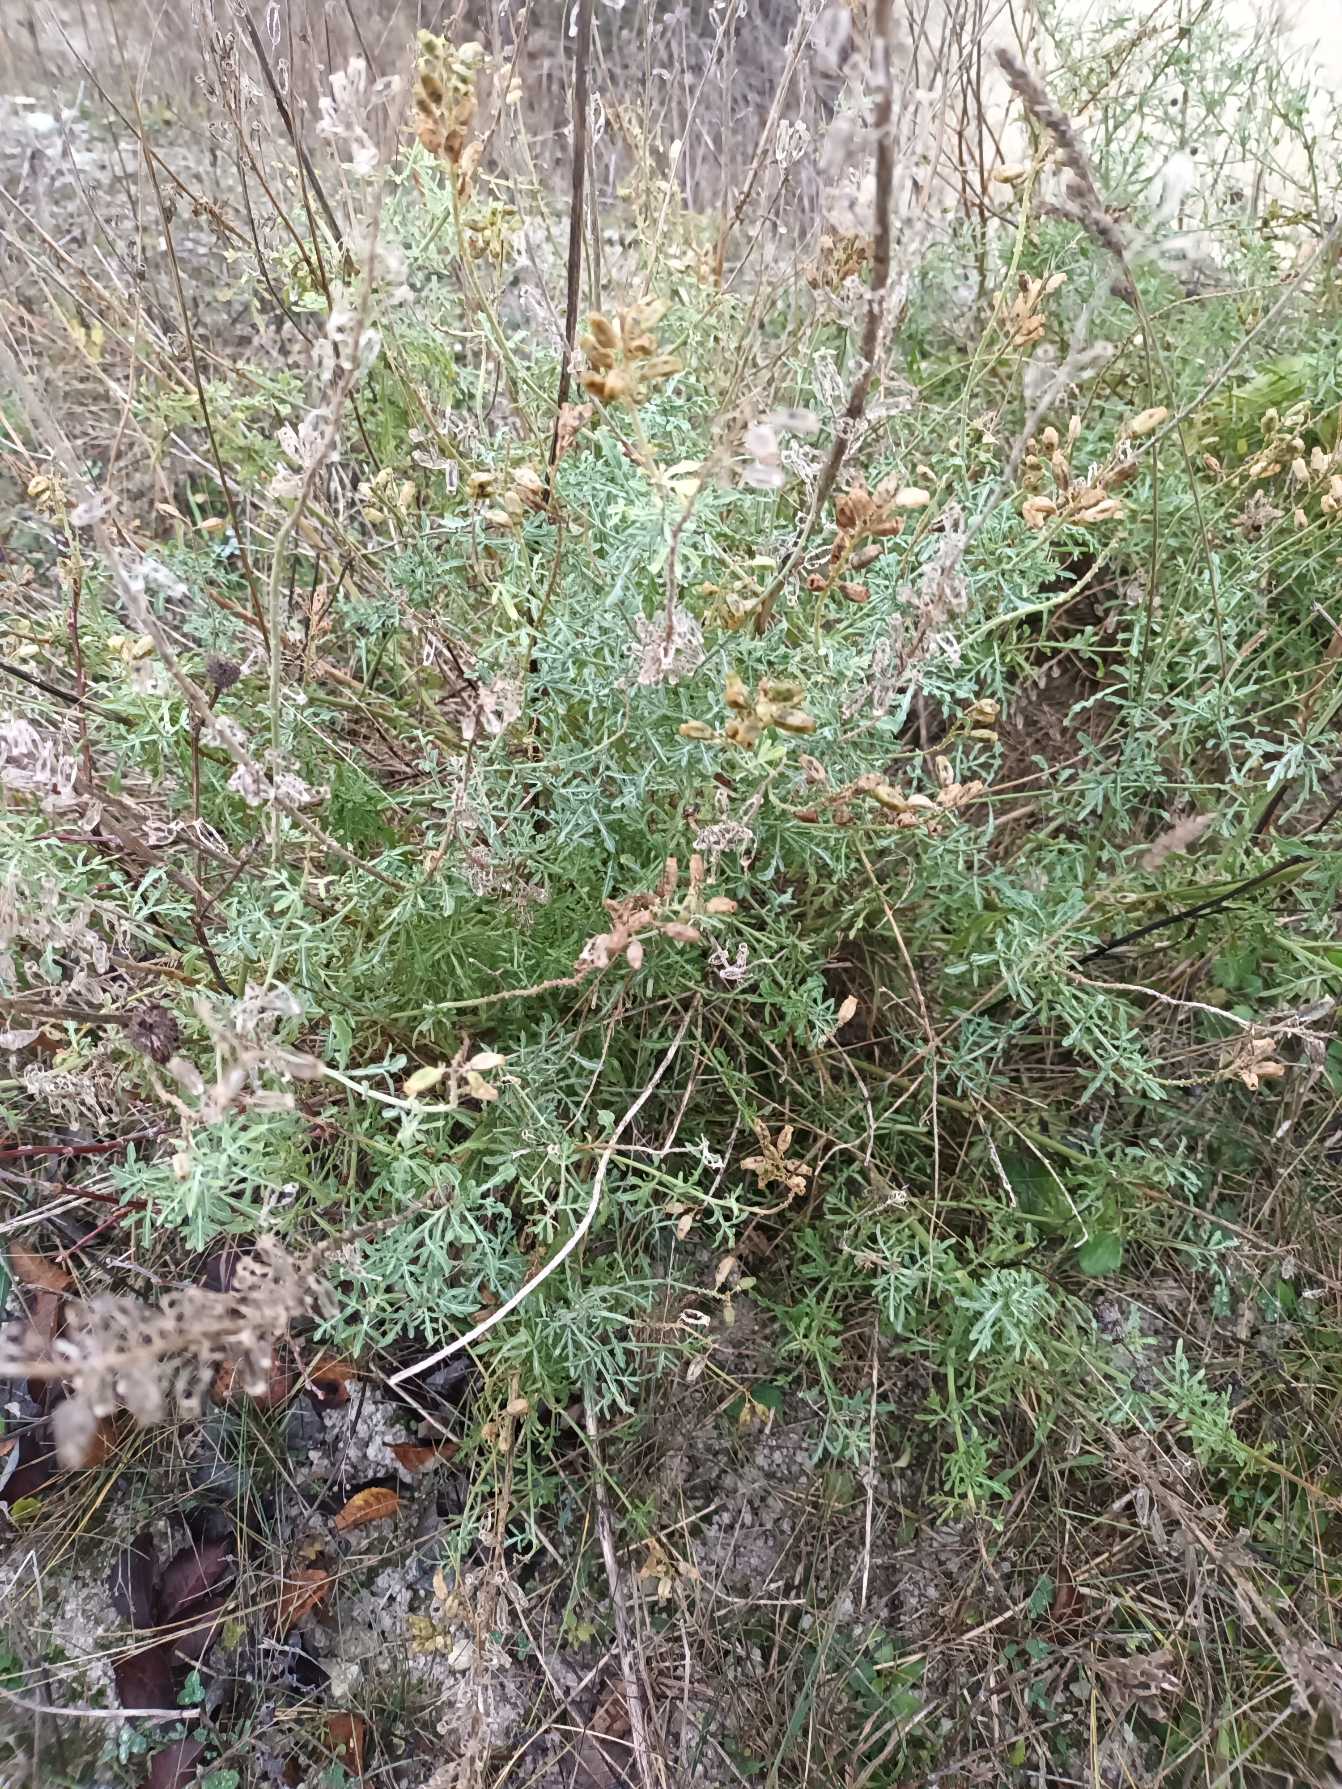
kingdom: Plantae
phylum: Tracheophyta
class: Magnoliopsida
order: Brassicales
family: Resedaceae
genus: Reseda
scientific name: Reseda lutea
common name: Gul reseda
